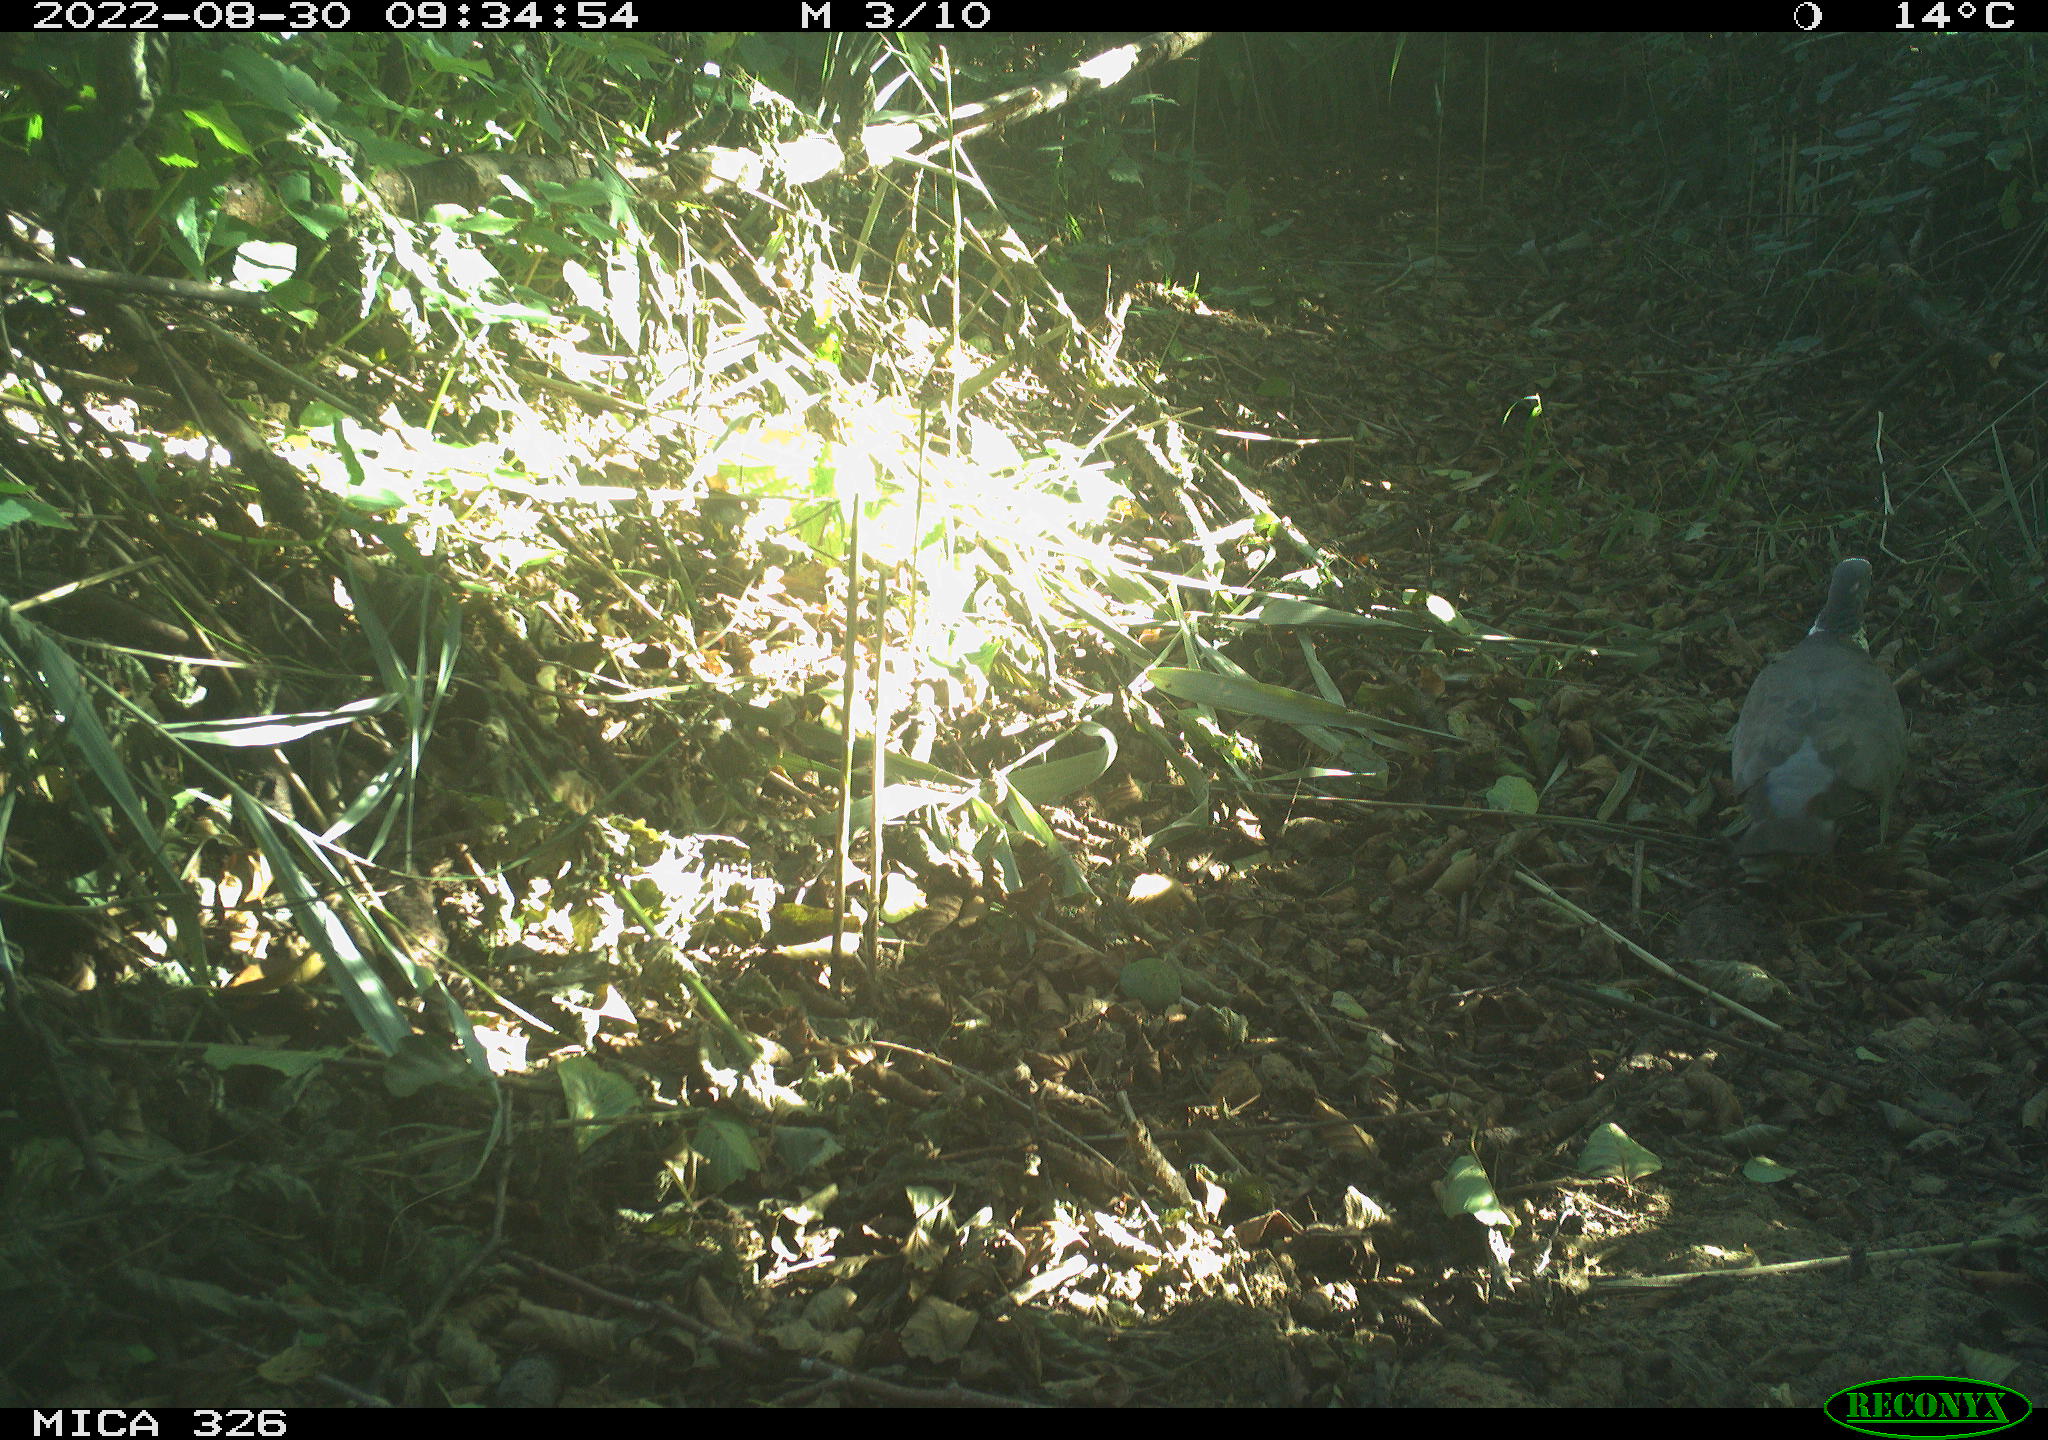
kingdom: Animalia
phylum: Chordata
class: Aves
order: Columbiformes
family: Columbidae
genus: Columba
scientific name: Columba palumbus
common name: Common wood pigeon
